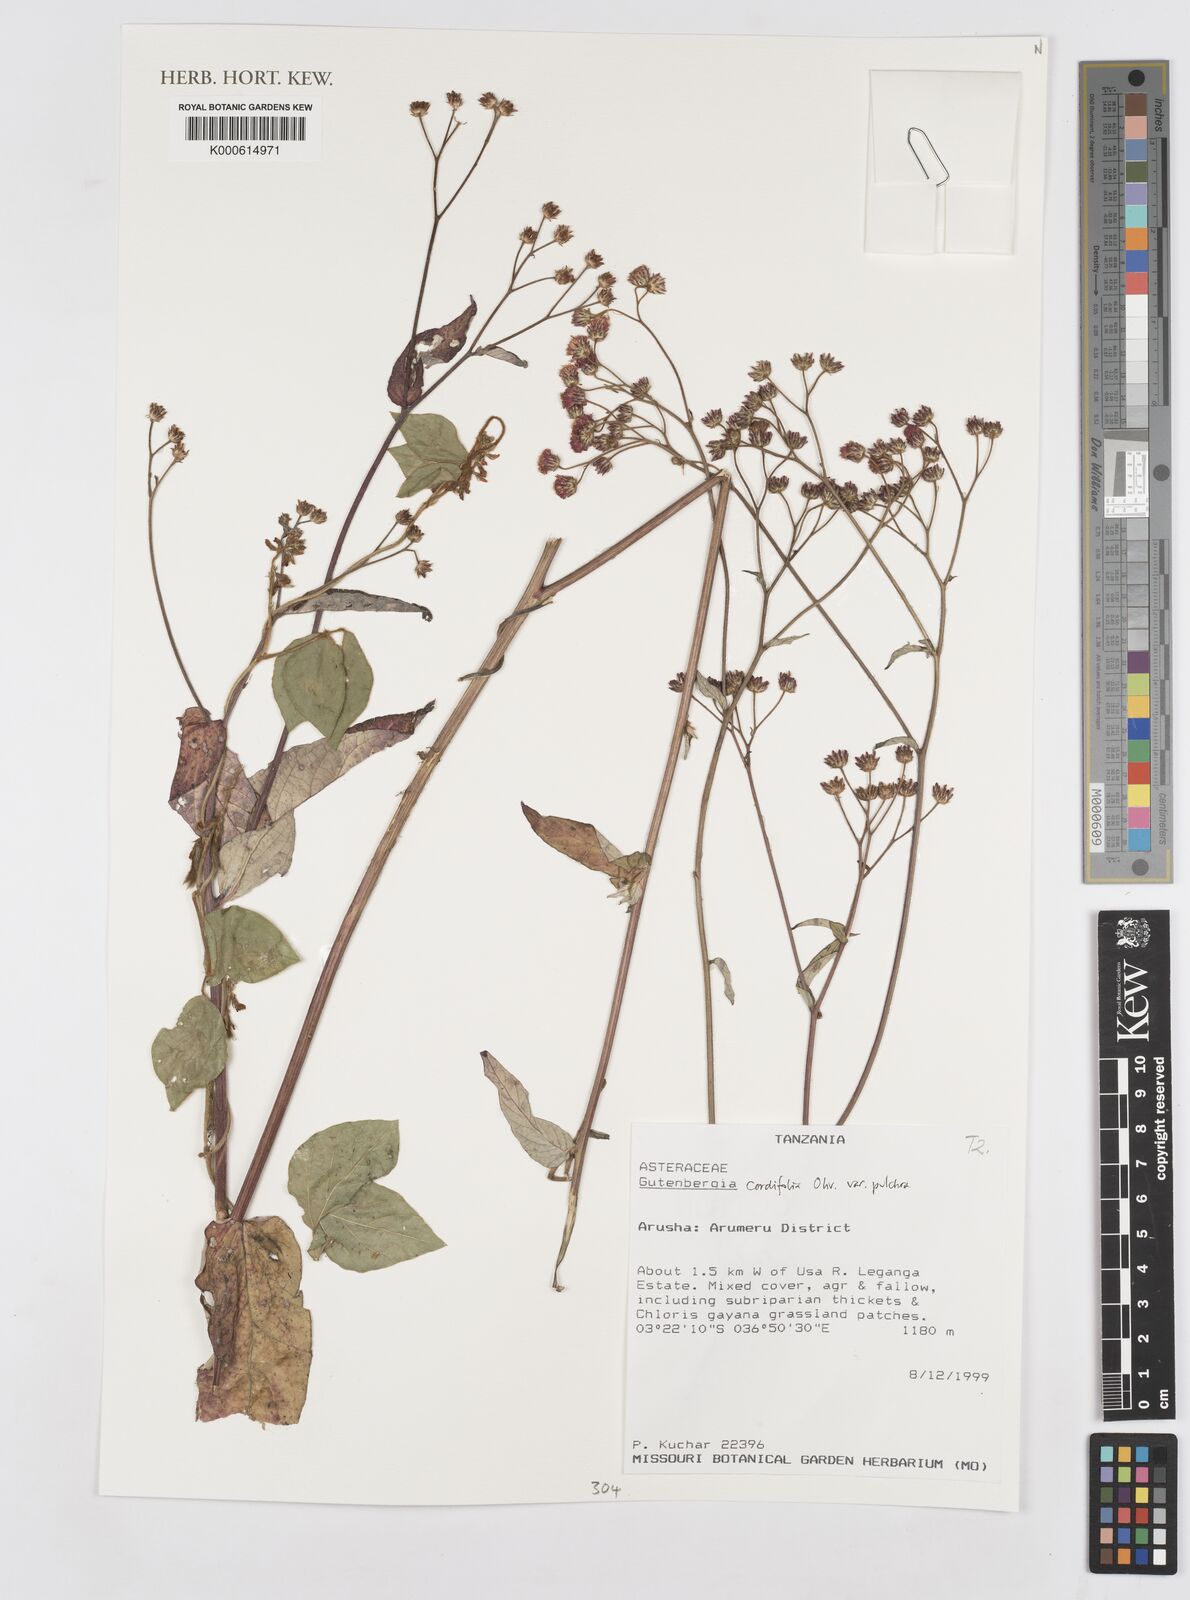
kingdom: Plantae
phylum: Tracheophyta
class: Magnoliopsida
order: Asterales
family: Asteraceae
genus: Gutenbergia
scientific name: Gutenbergia cordifolia
